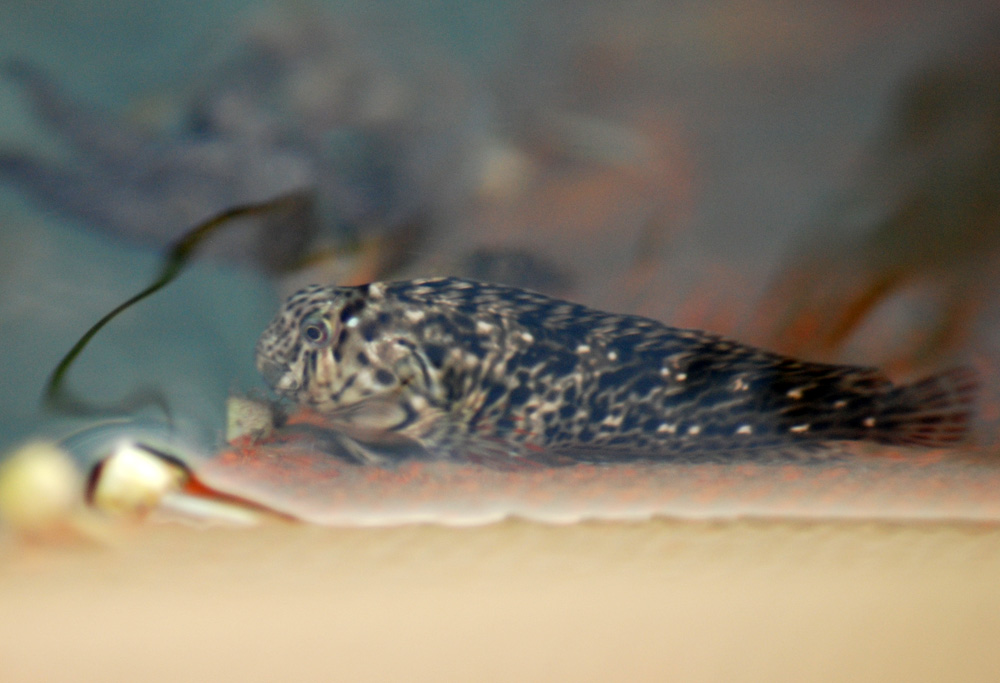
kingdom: Animalia
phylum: Chordata
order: Perciformes
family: Blenniidae
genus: Parablennius
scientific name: Parablennius sanguinolentus
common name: Black sea blenny
